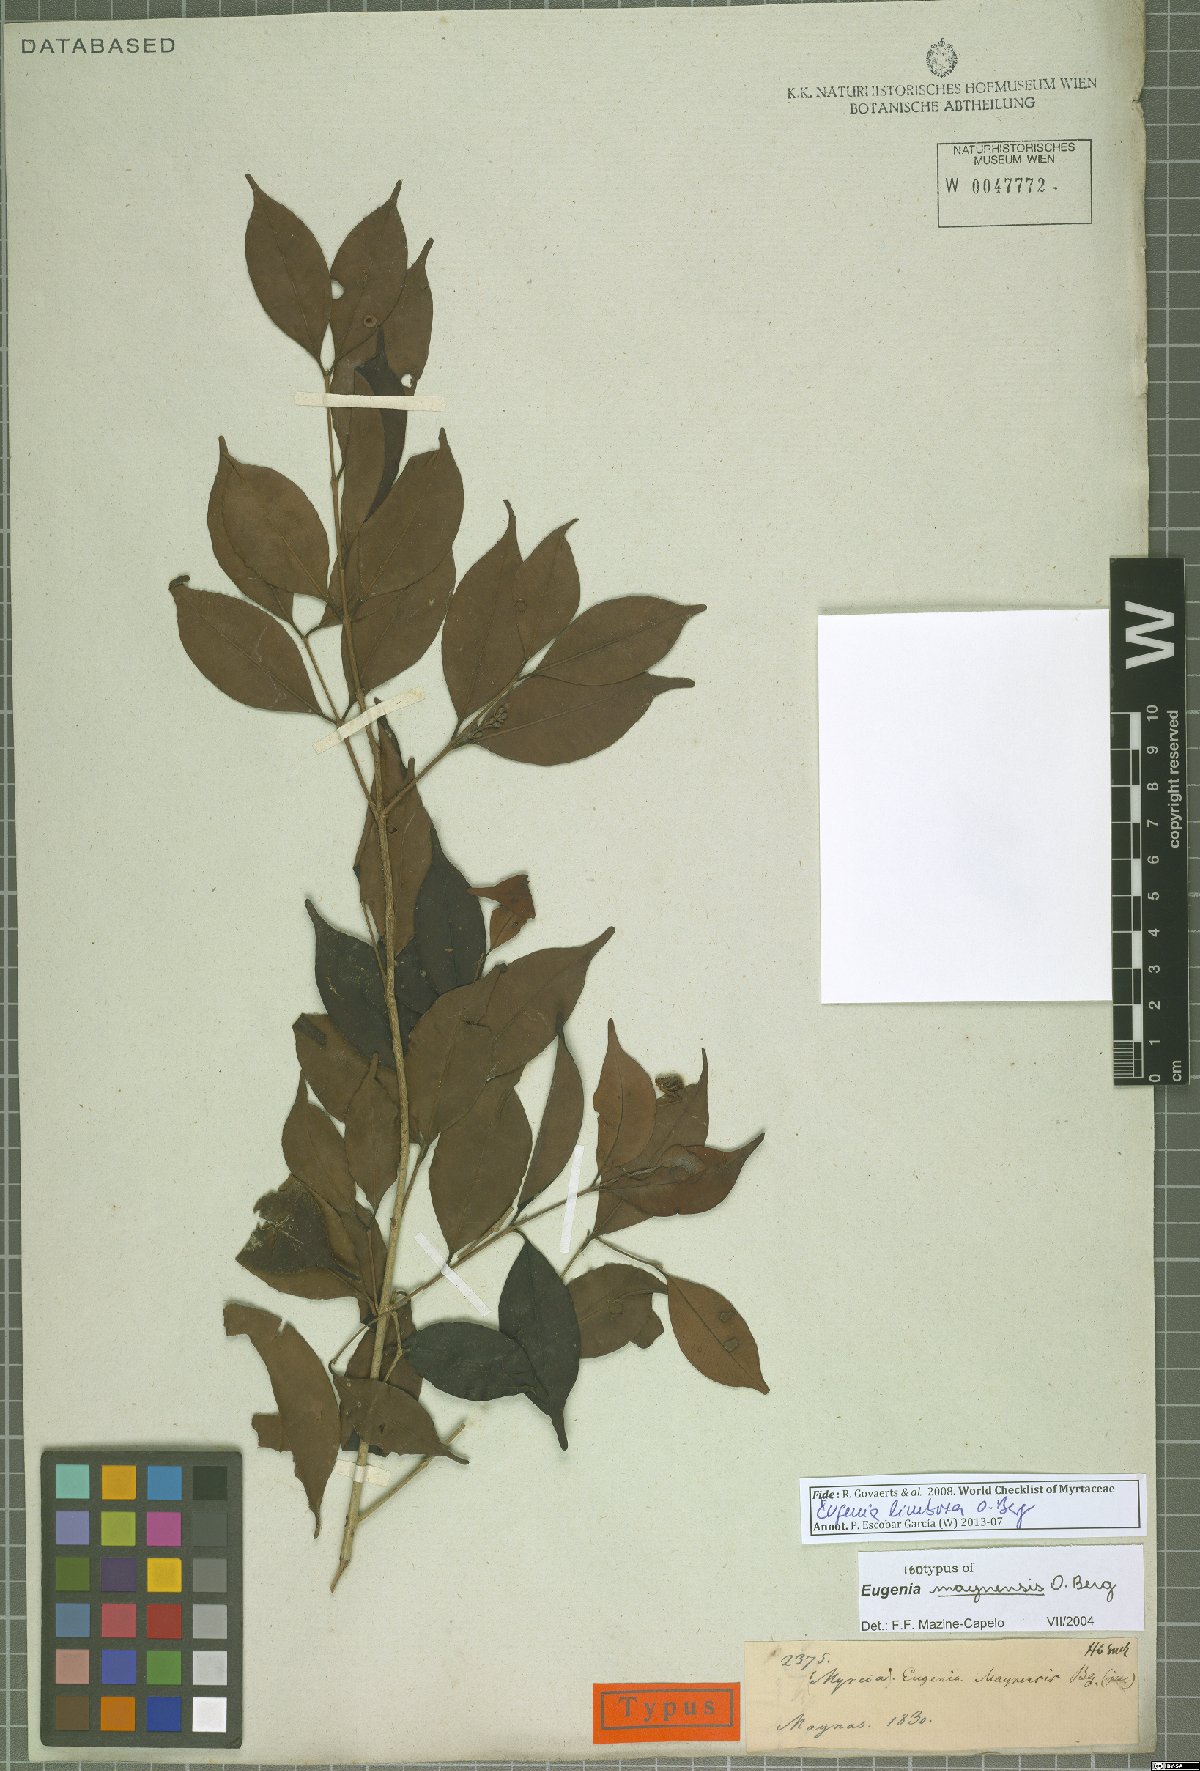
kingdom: Plantae
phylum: Tracheophyta
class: Magnoliopsida
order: Myrtales
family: Myrtaceae
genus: Eugenia
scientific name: Eugenia limbosa
